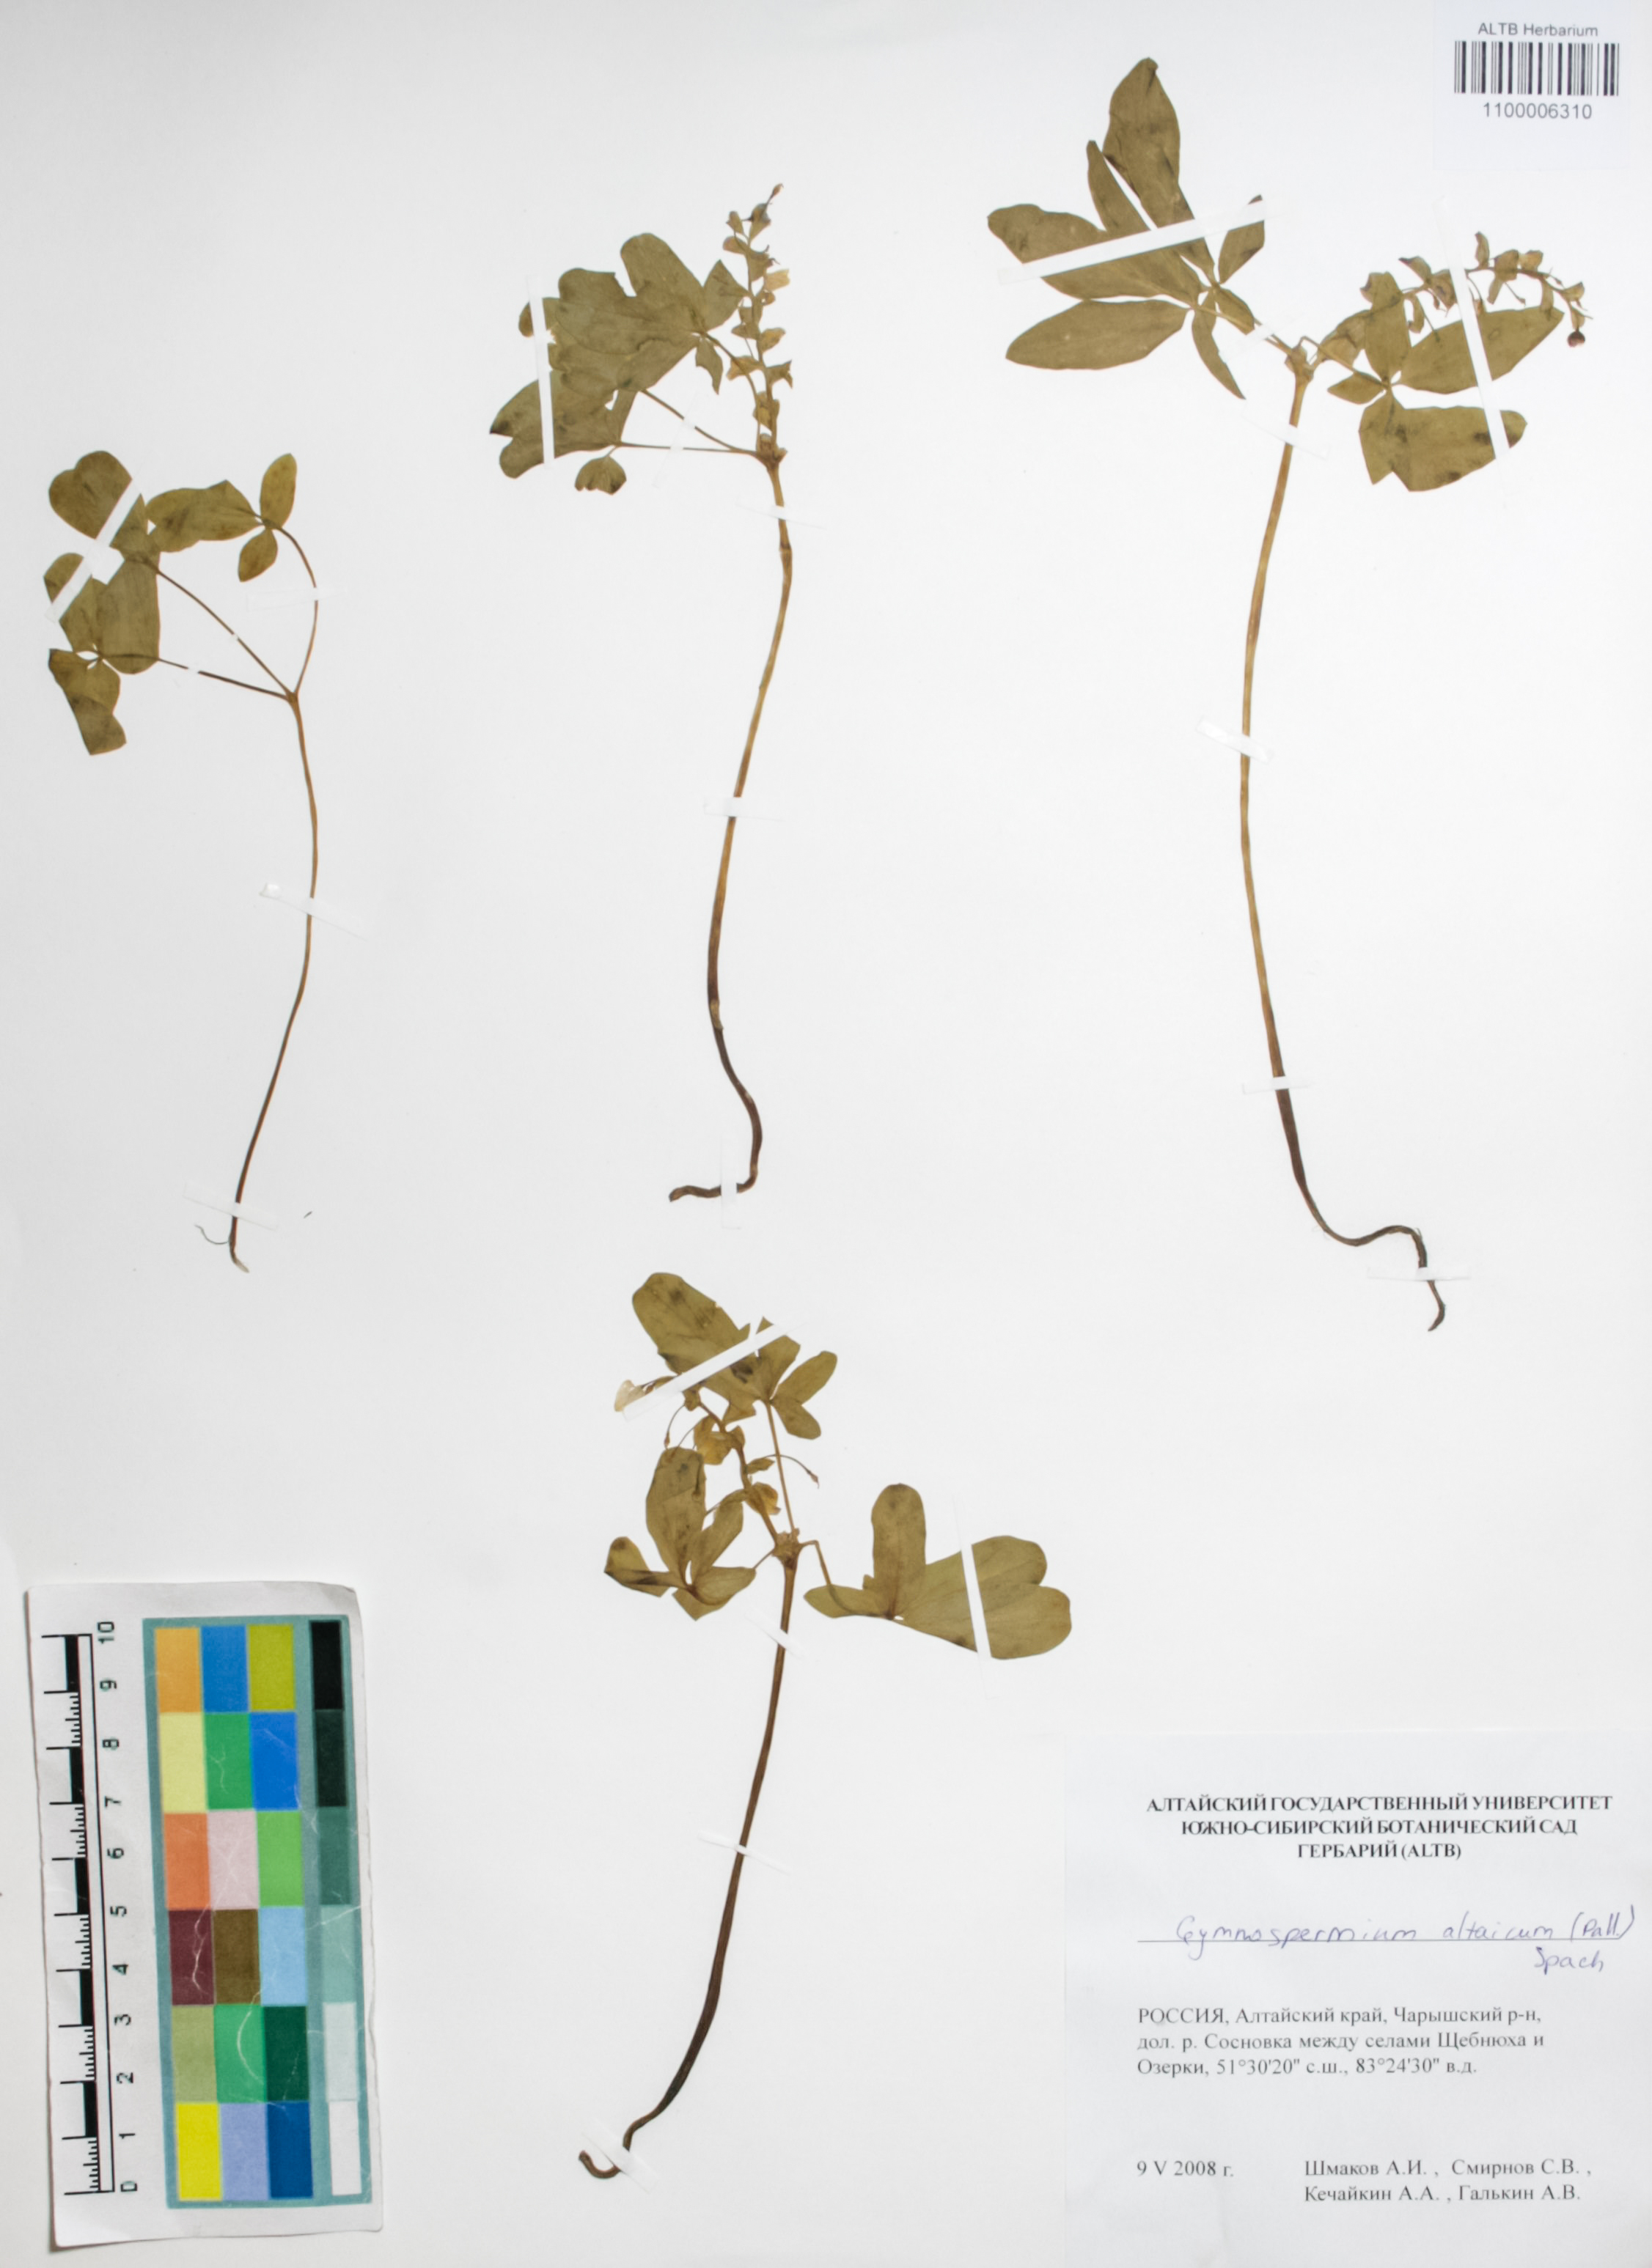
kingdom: Plantae
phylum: Tracheophyta
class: Magnoliopsida
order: Ranunculales
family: Berberidaceae
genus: Gymnospermium
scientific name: Gymnospermium altaicum
